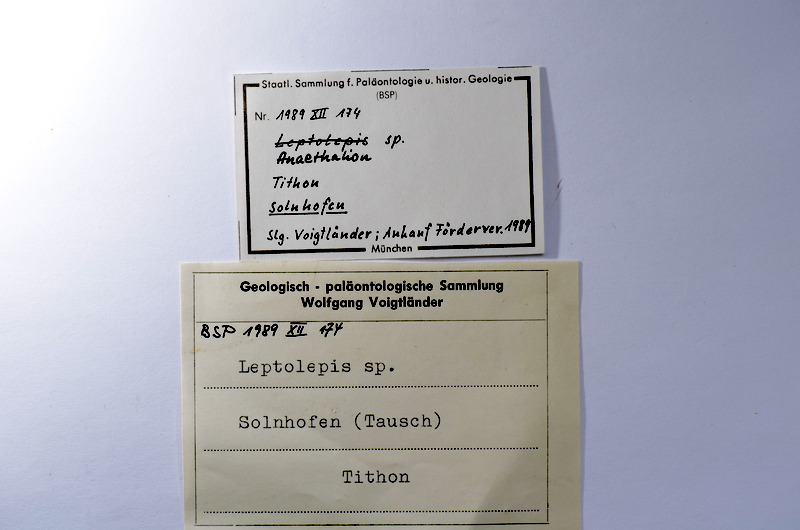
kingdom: Animalia
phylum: Chordata
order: Elopiformes
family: Anaethalionidae
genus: Anaethalion
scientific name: Anaethalion
